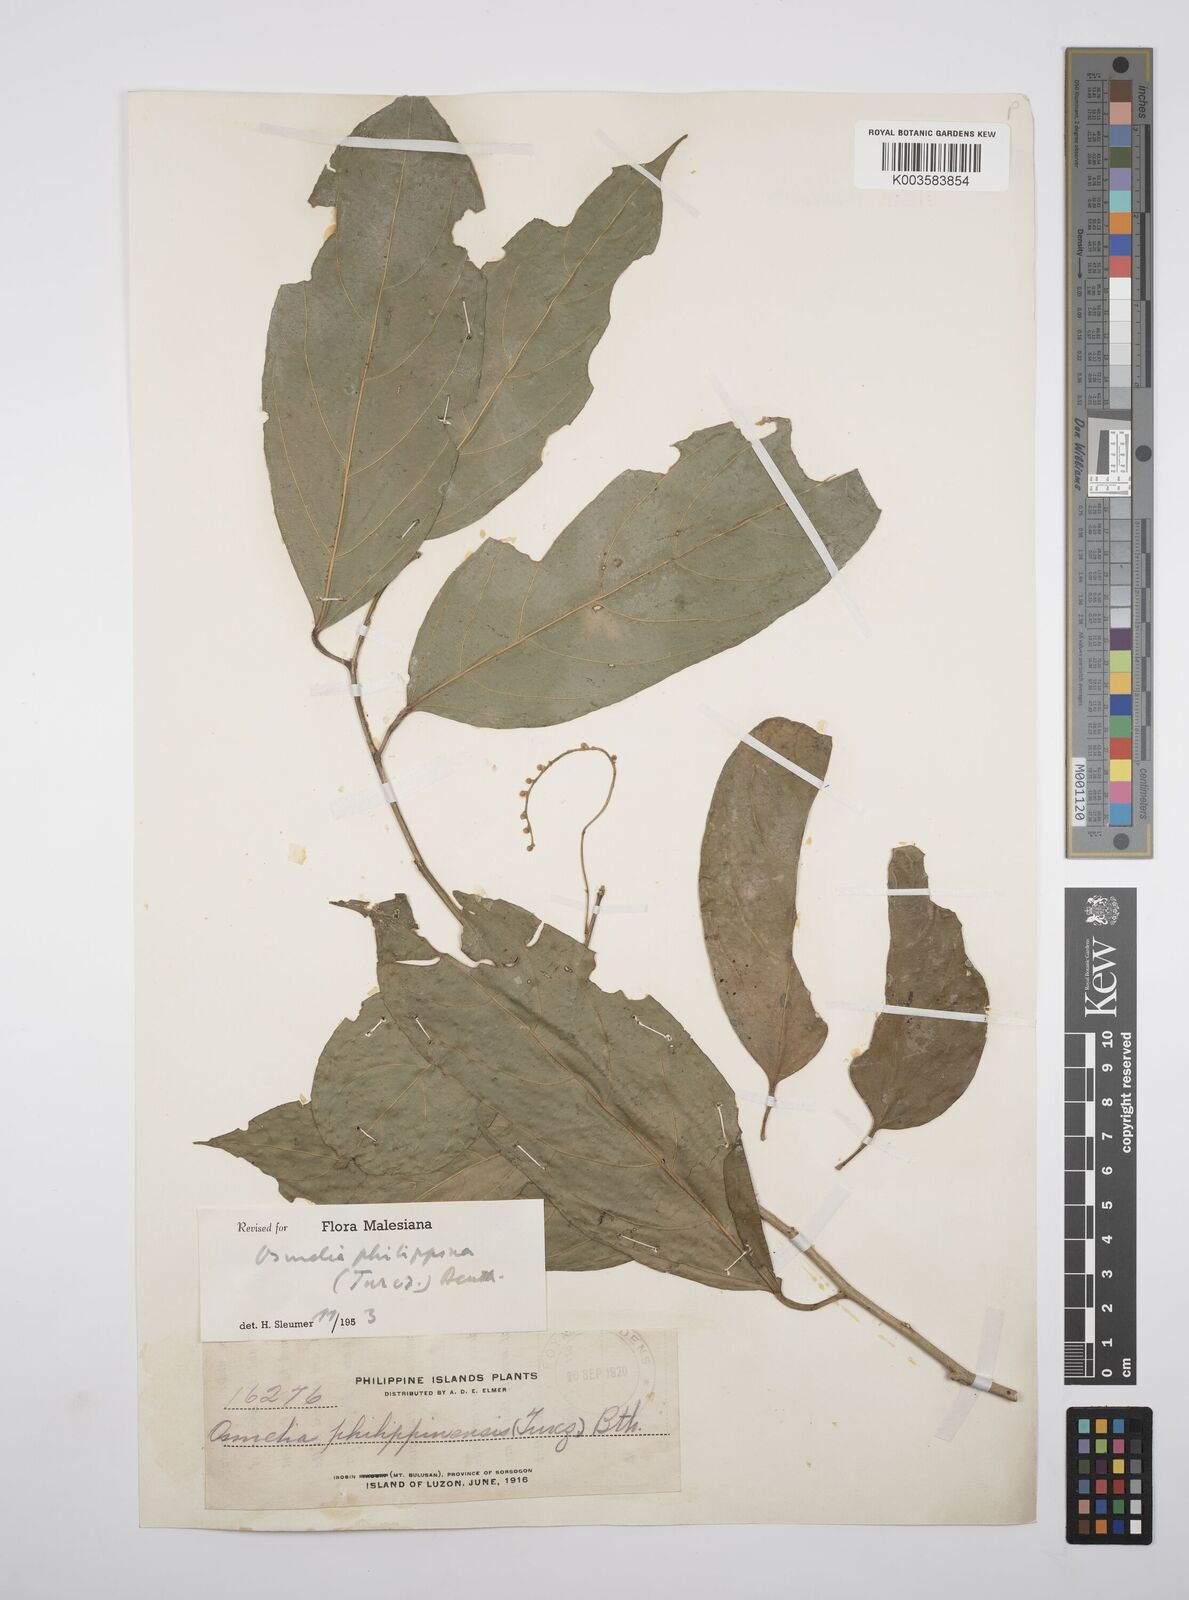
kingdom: Plantae
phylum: Tracheophyta
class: Magnoliopsida
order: Malpighiales
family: Salicaceae
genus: Osmelia
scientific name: Osmelia philippina
